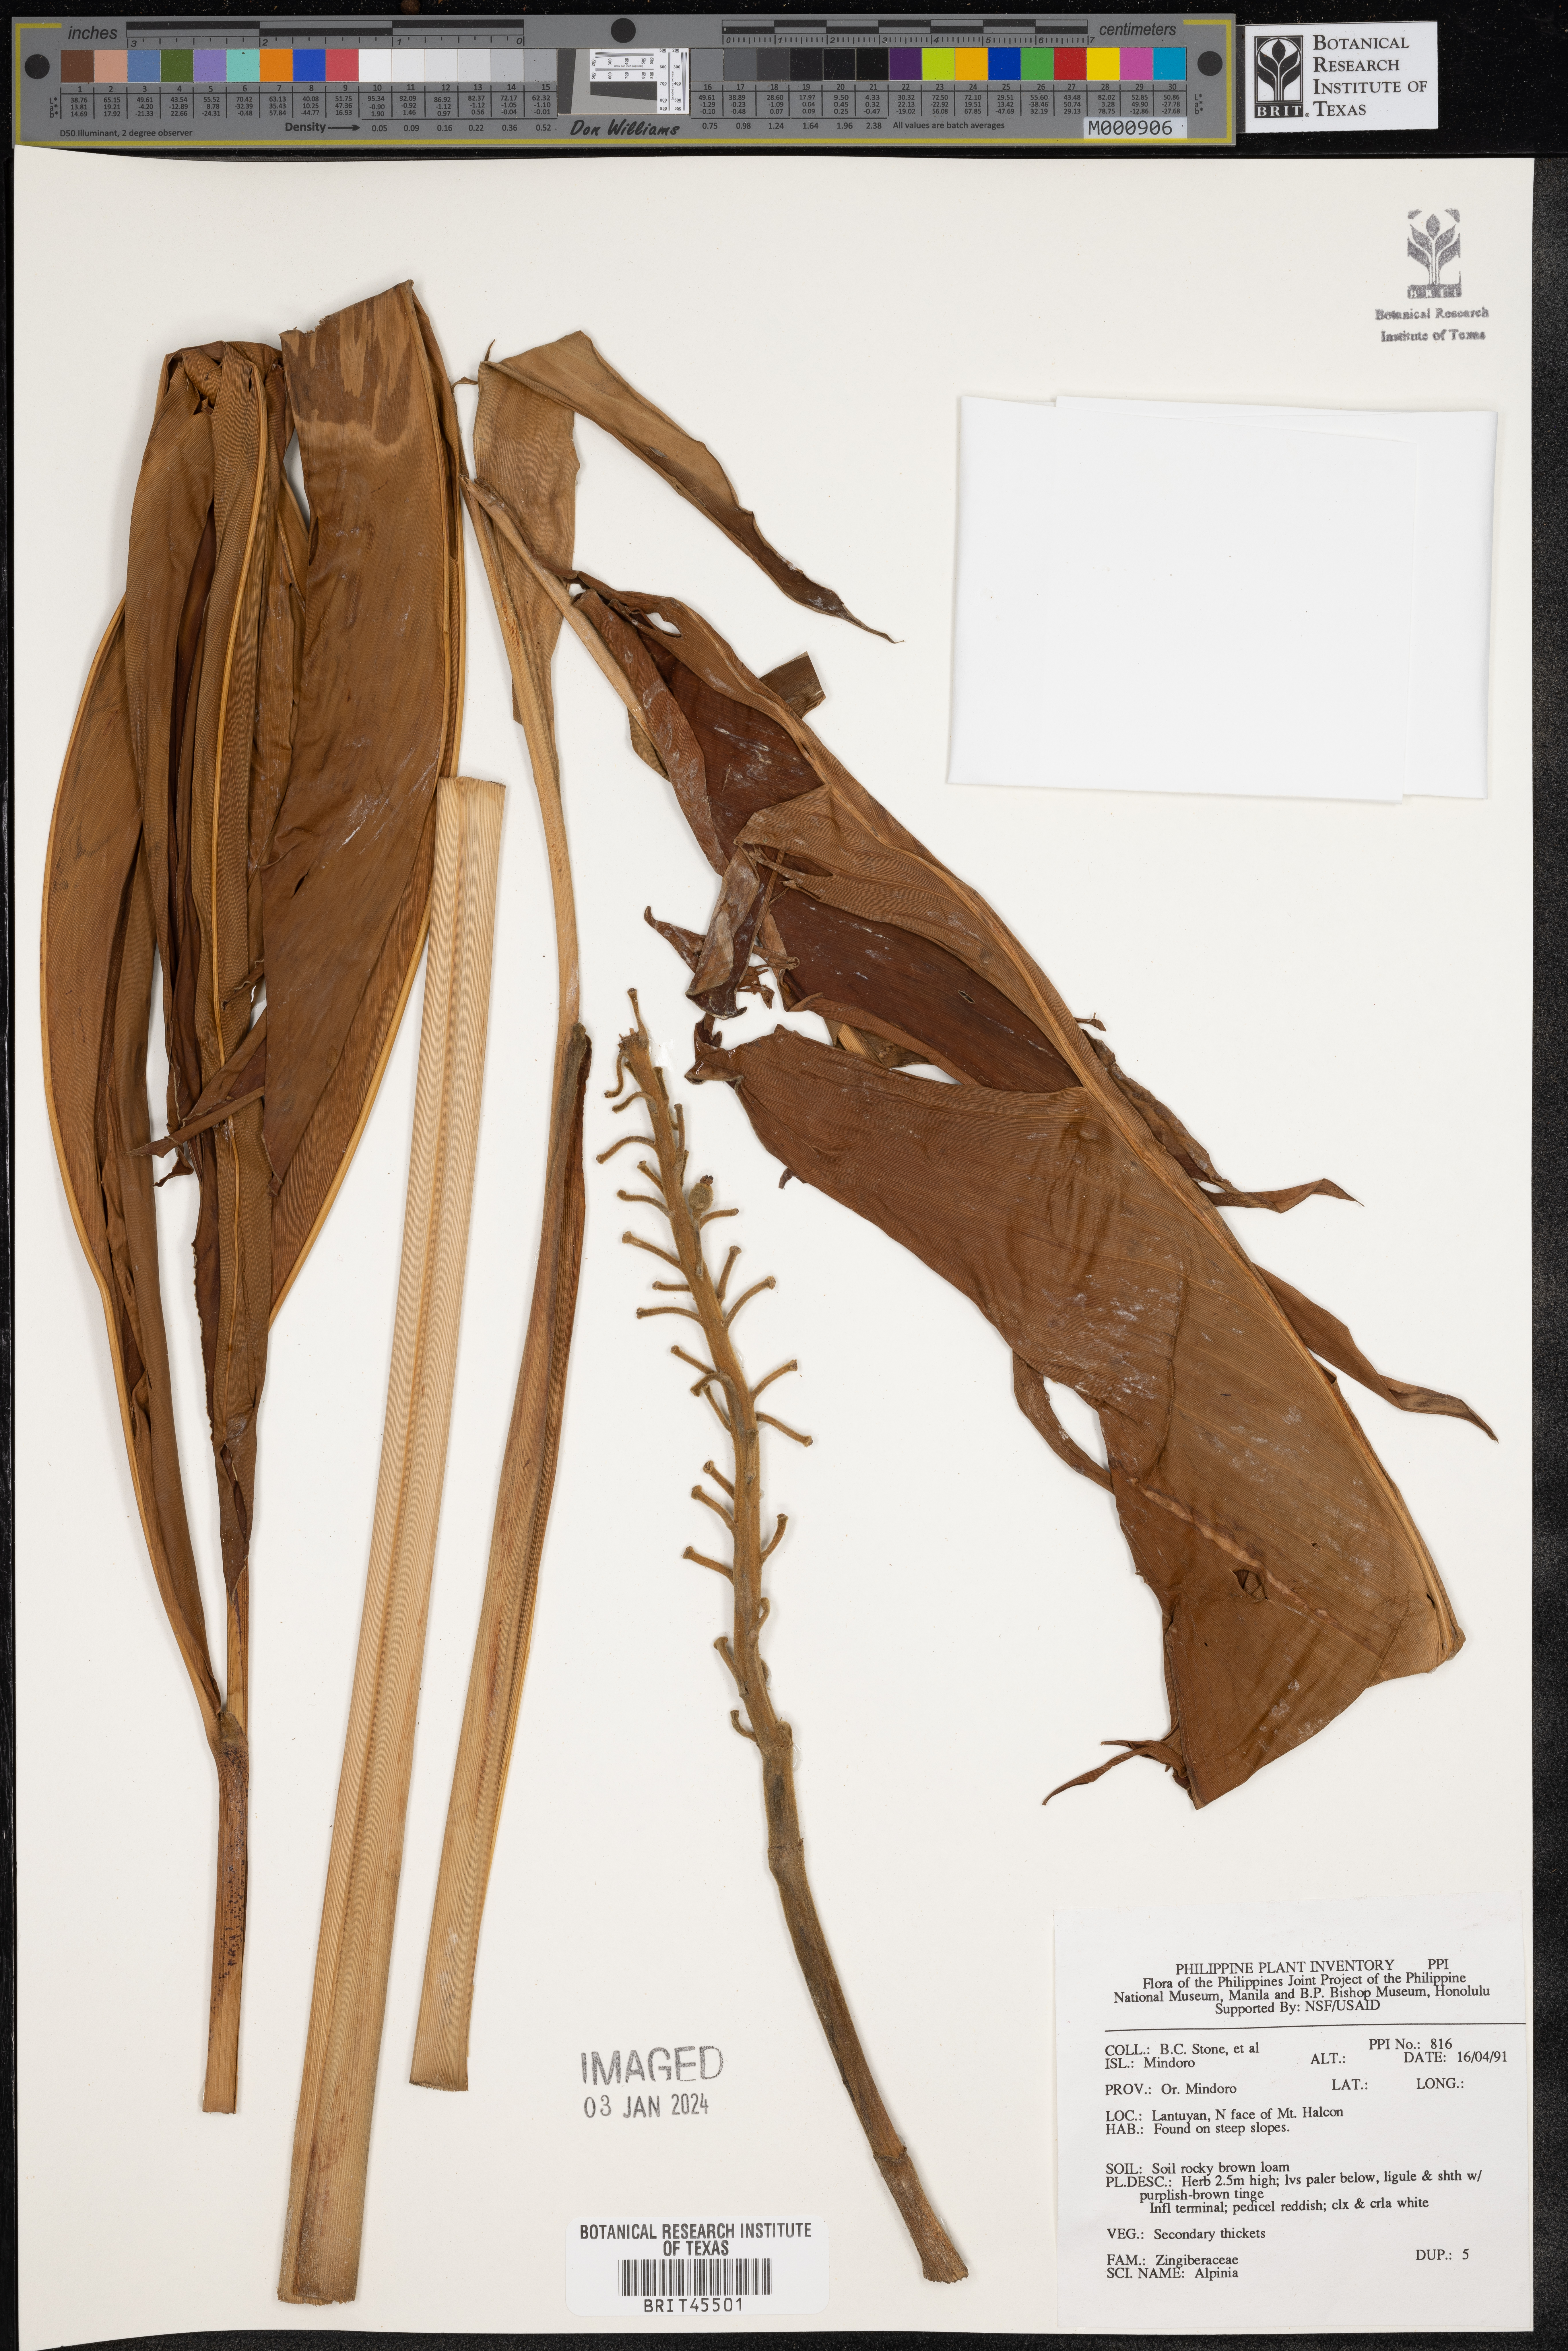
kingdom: Plantae
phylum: Tracheophyta
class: Liliopsida
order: Zingiberales
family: Zingiberaceae
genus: Alpinia
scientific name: Alpinia
